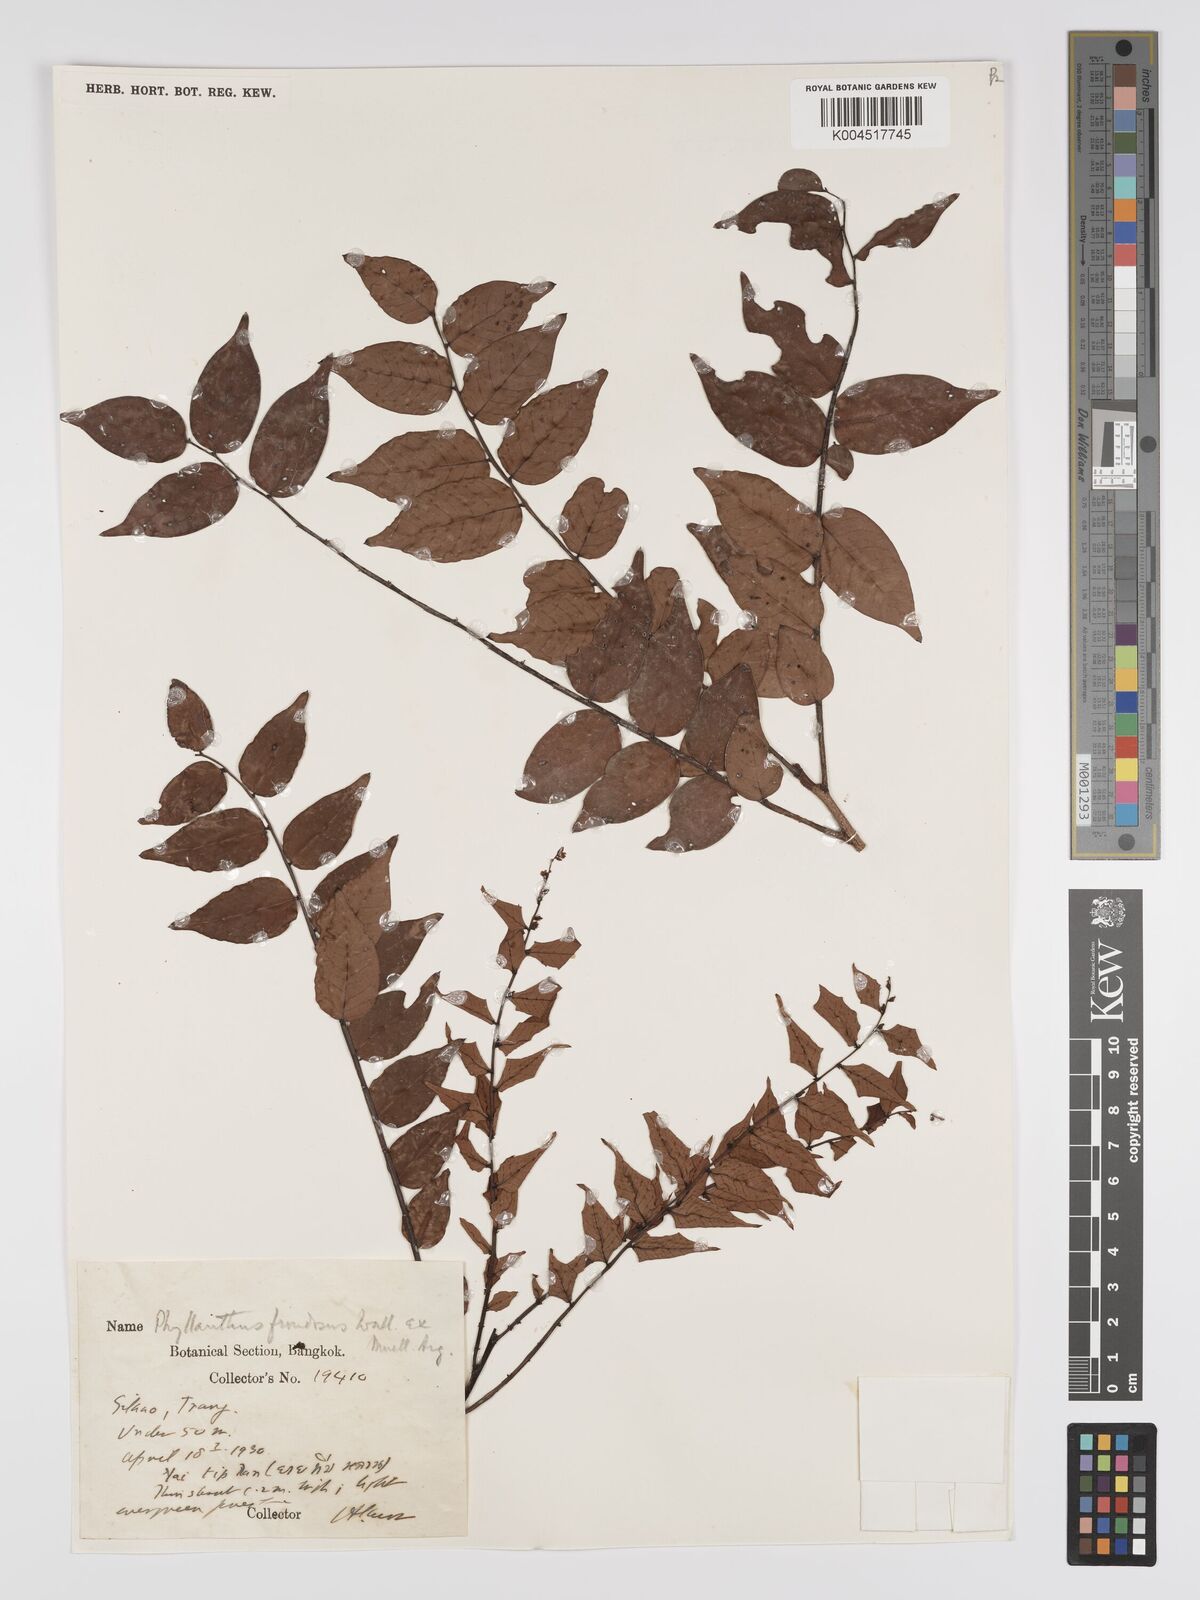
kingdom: Plantae
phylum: Tracheophyta
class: Magnoliopsida
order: Malpighiales
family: Phyllanthaceae
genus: Phyllanthus
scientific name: Phyllanthus
